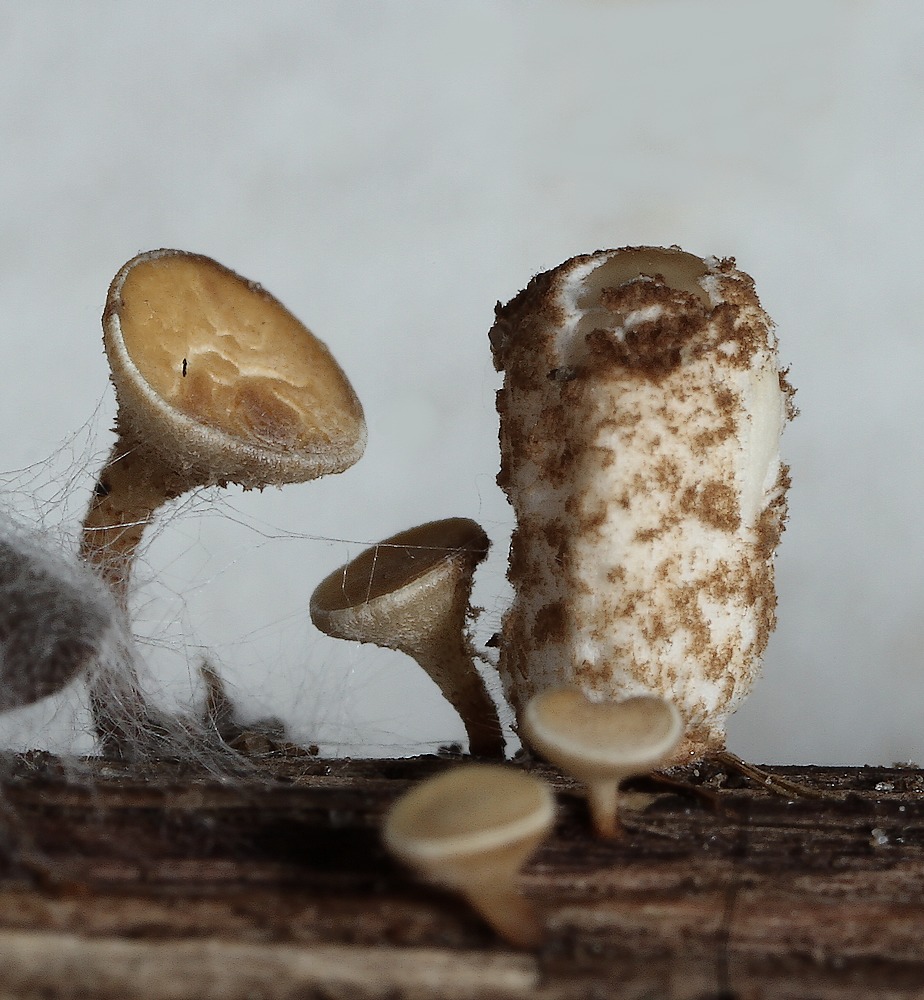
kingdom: Fungi
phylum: Basidiomycota
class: Agaricomycetes
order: Agaricales
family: Psathyrellaceae
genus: Coprinopsis
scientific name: Coprinopsis tigrinella
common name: brunfnugget blækhat
